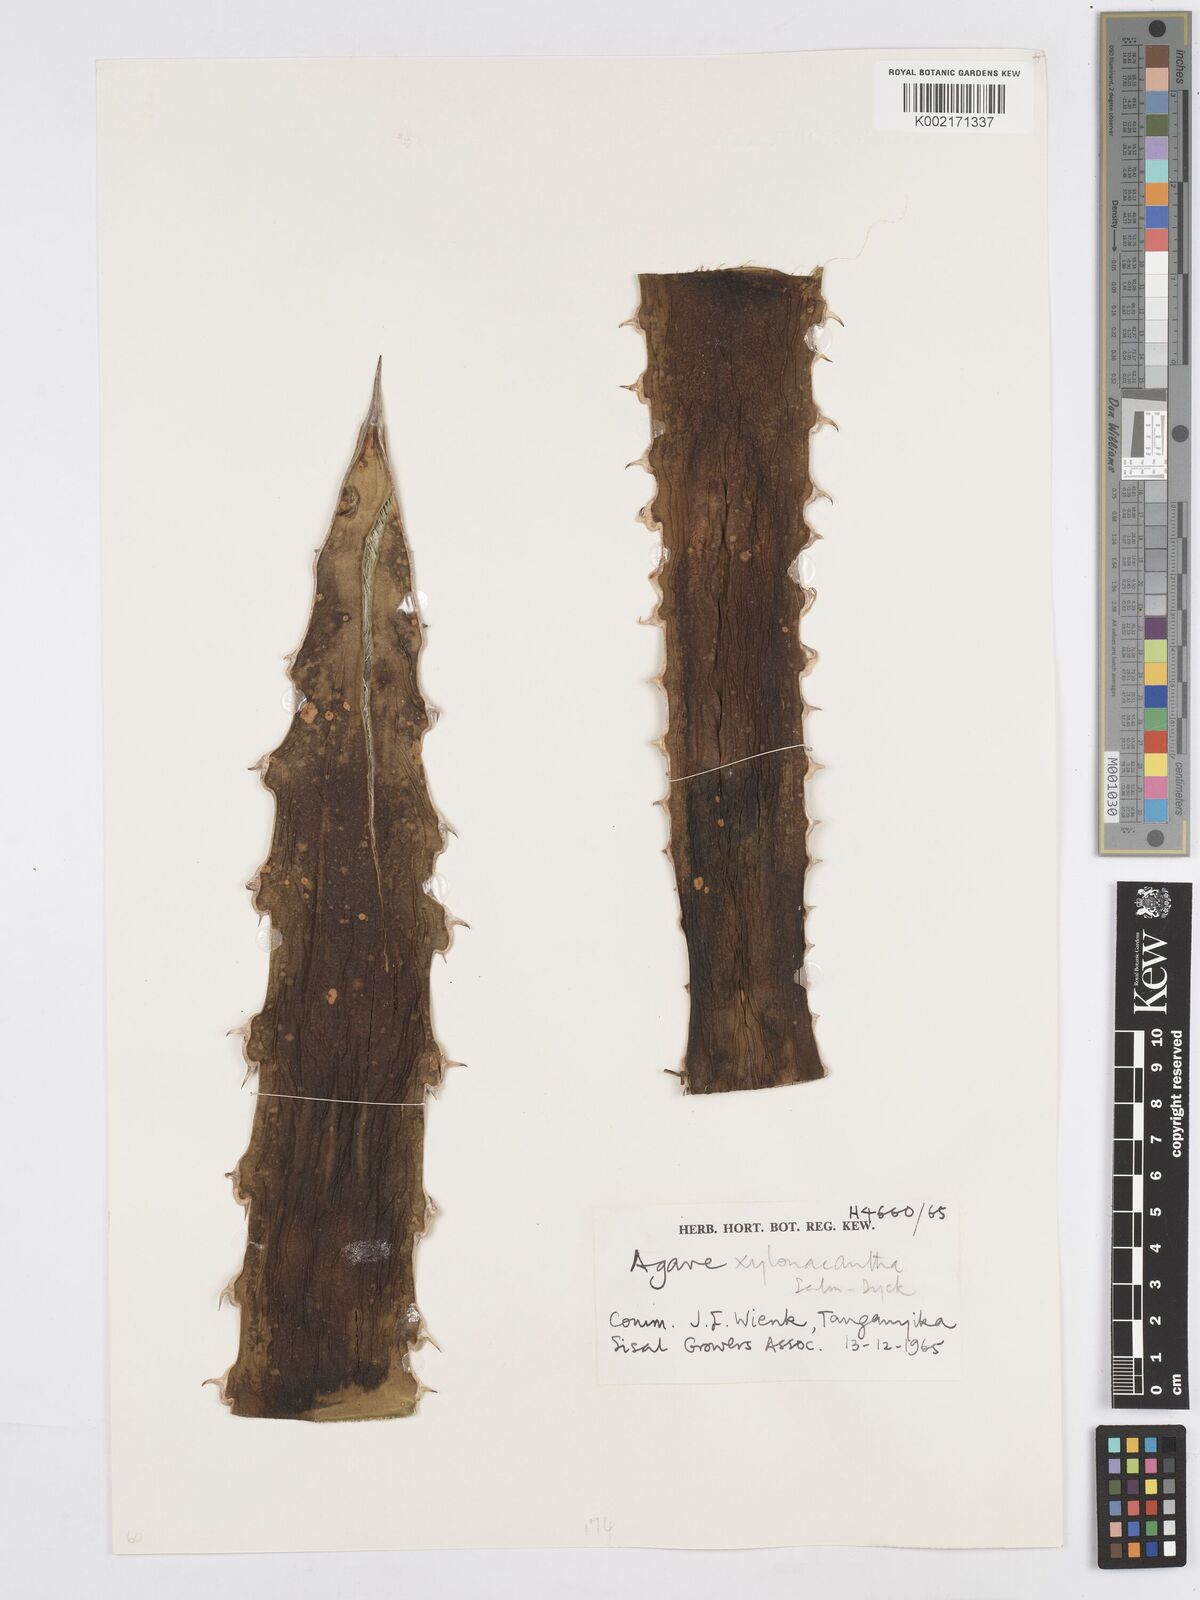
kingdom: Plantae
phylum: Tracheophyta
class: Liliopsida
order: Asparagales
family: Asparagaceae
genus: Agave
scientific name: Agave xylonacantha
